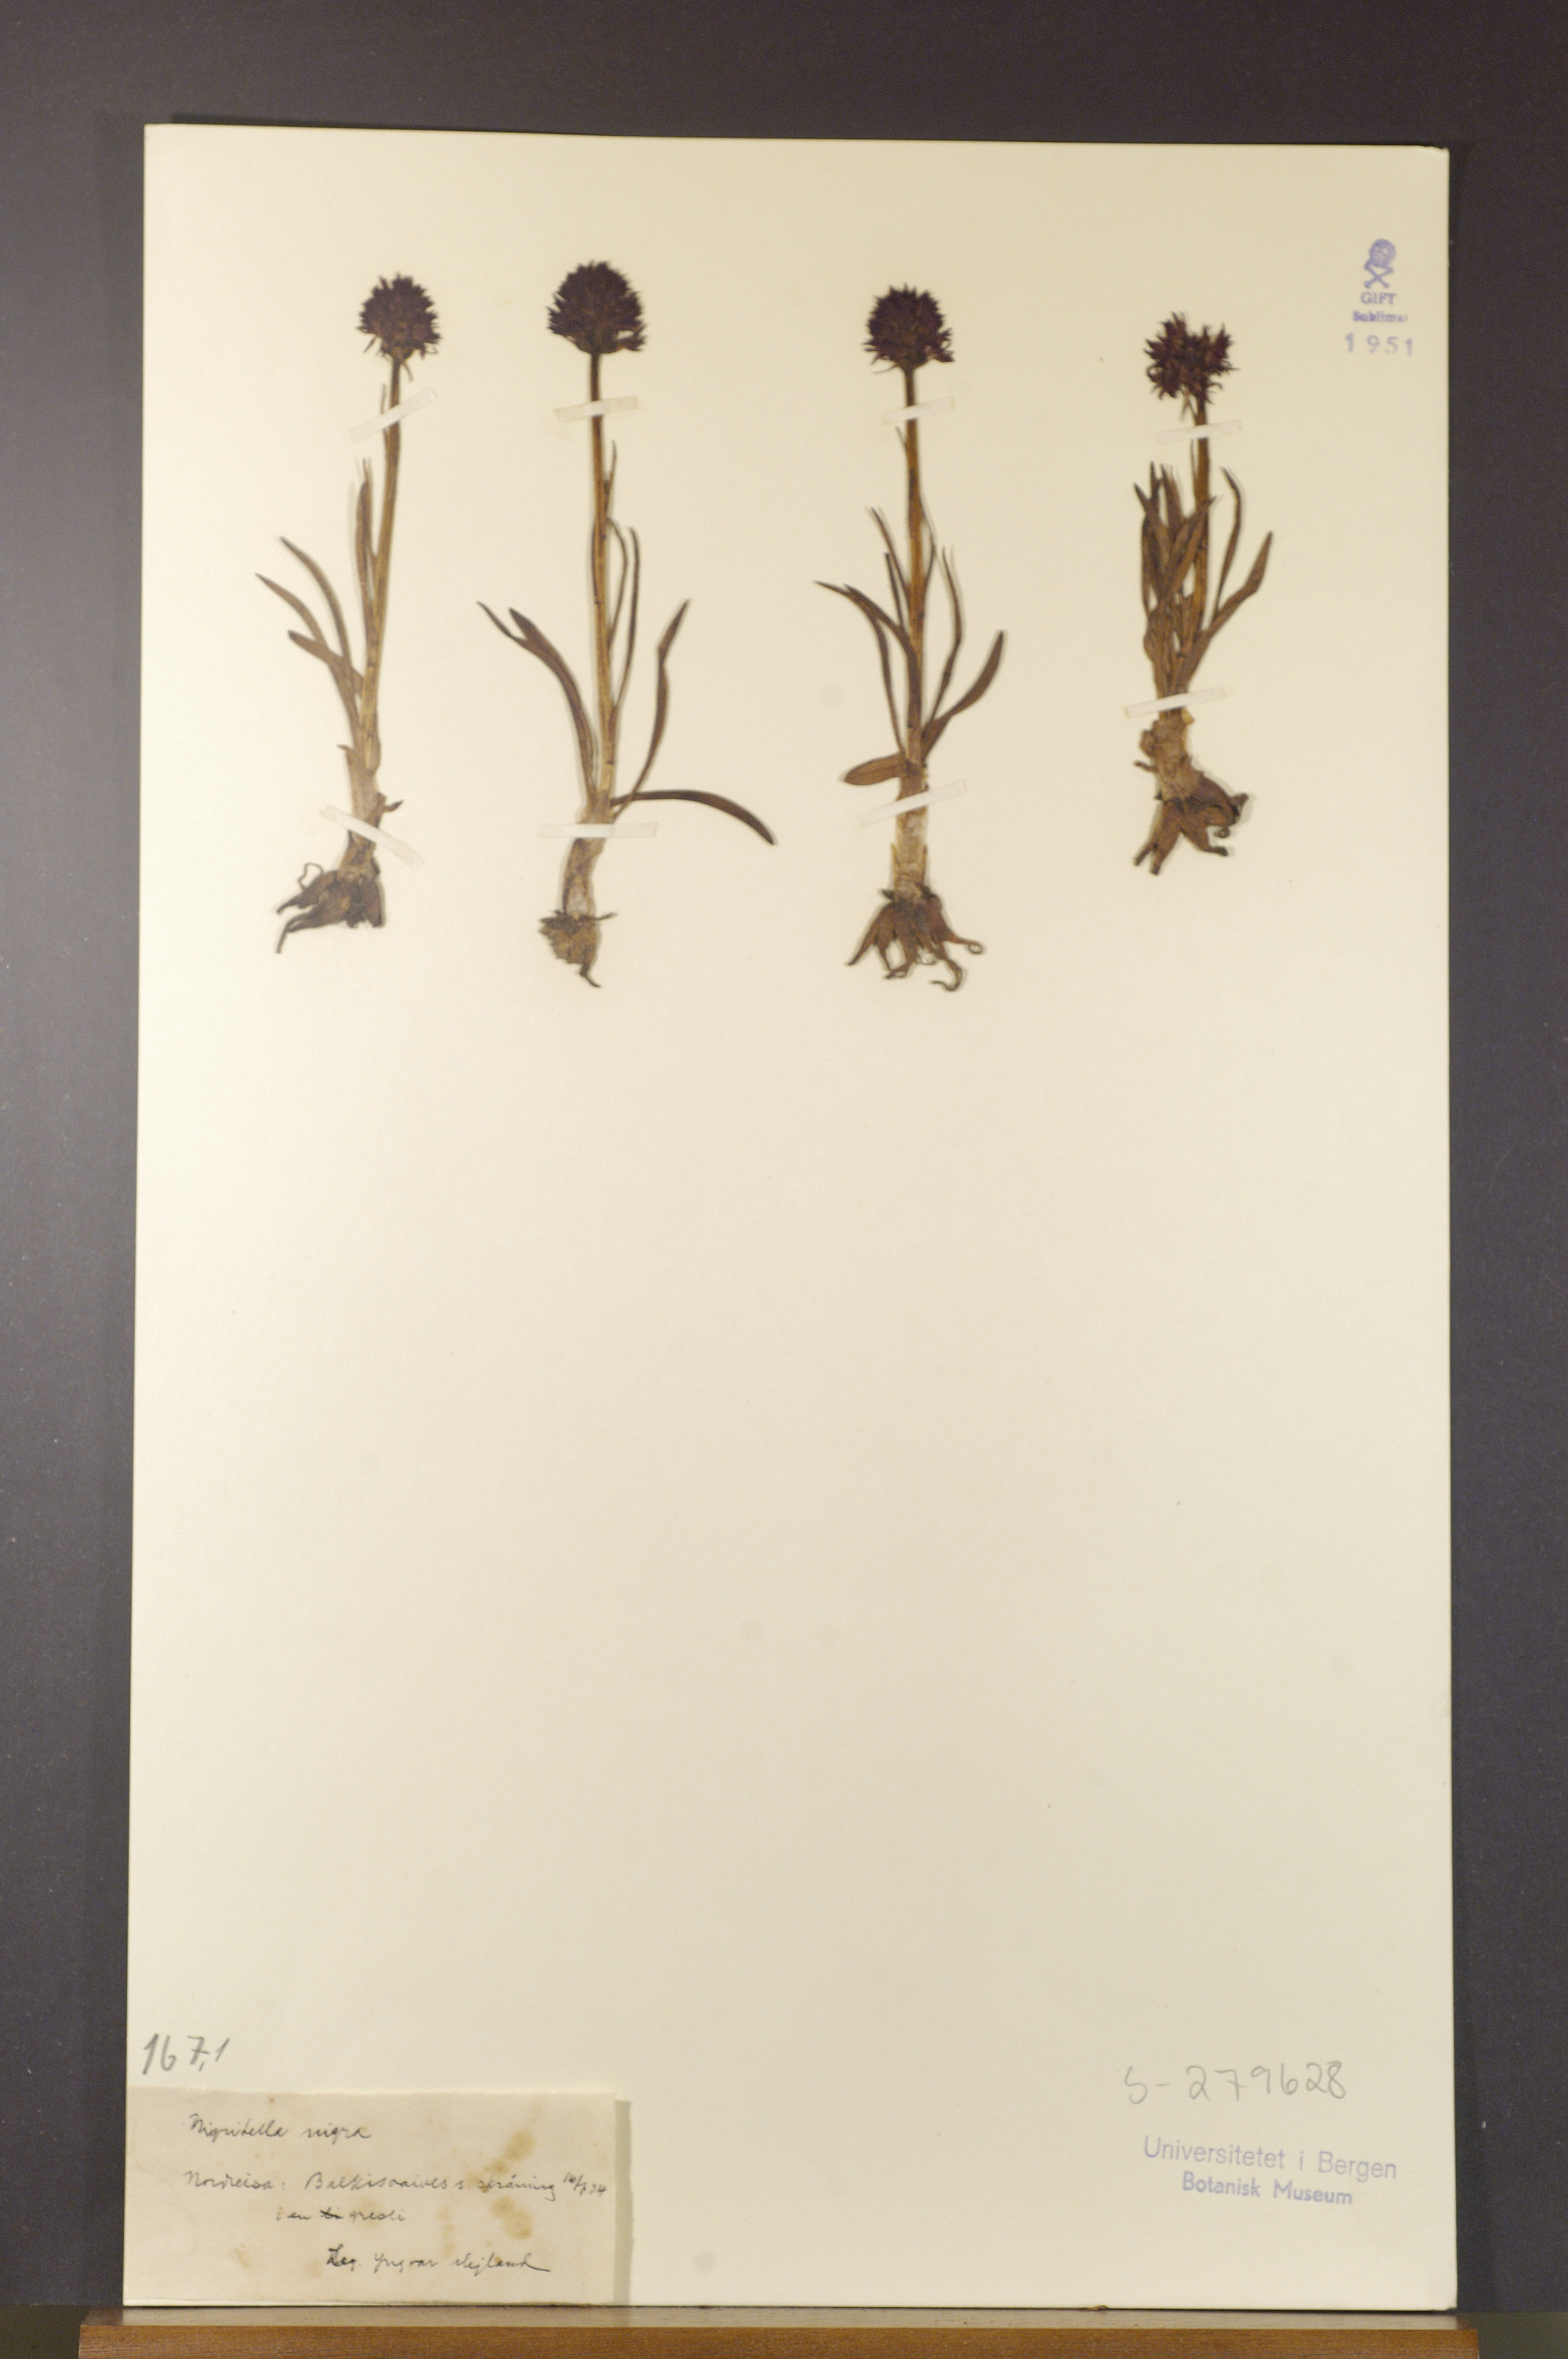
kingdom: Plantae
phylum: Tracheophyta
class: Liliopsida
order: Asparagales
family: Orchidaceae
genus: Gymnadenia
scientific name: Gymnadenia nigra
